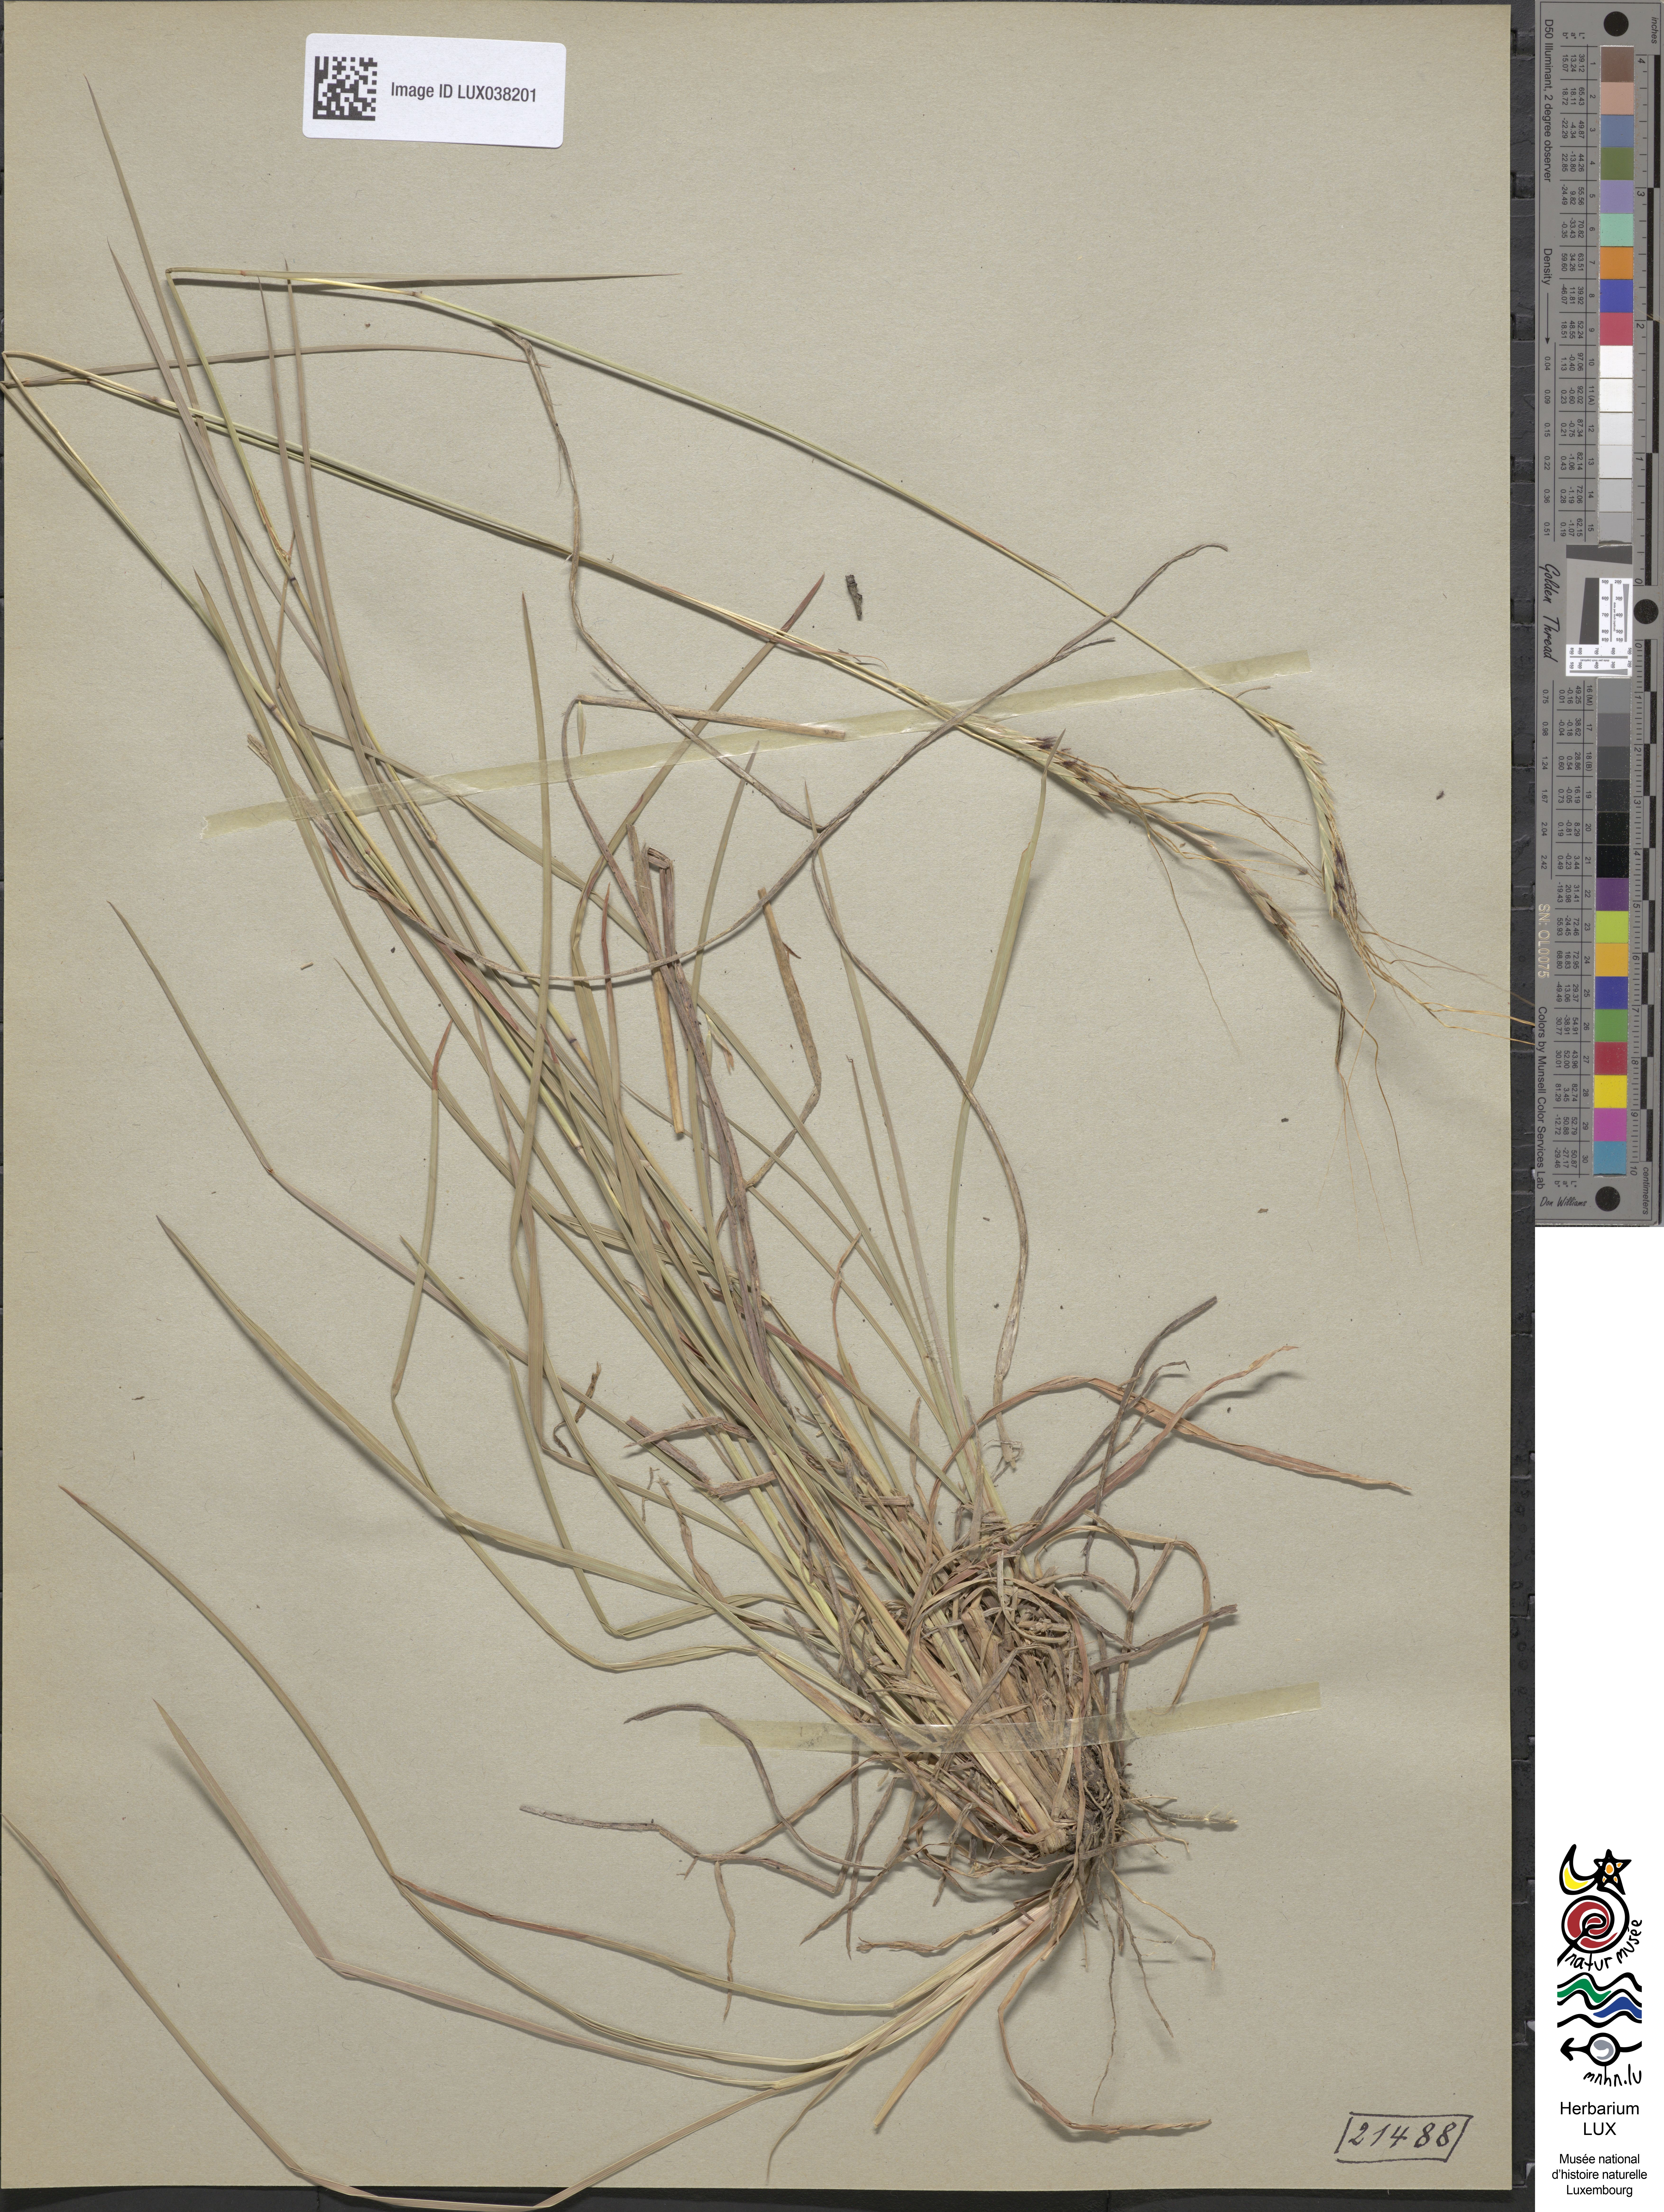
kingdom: Plantae
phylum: Tracheophyta
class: Liliopsida
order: Poales
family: Poaceae
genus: Heteropogon
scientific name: Heteropogon contortus
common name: Tanglehead
